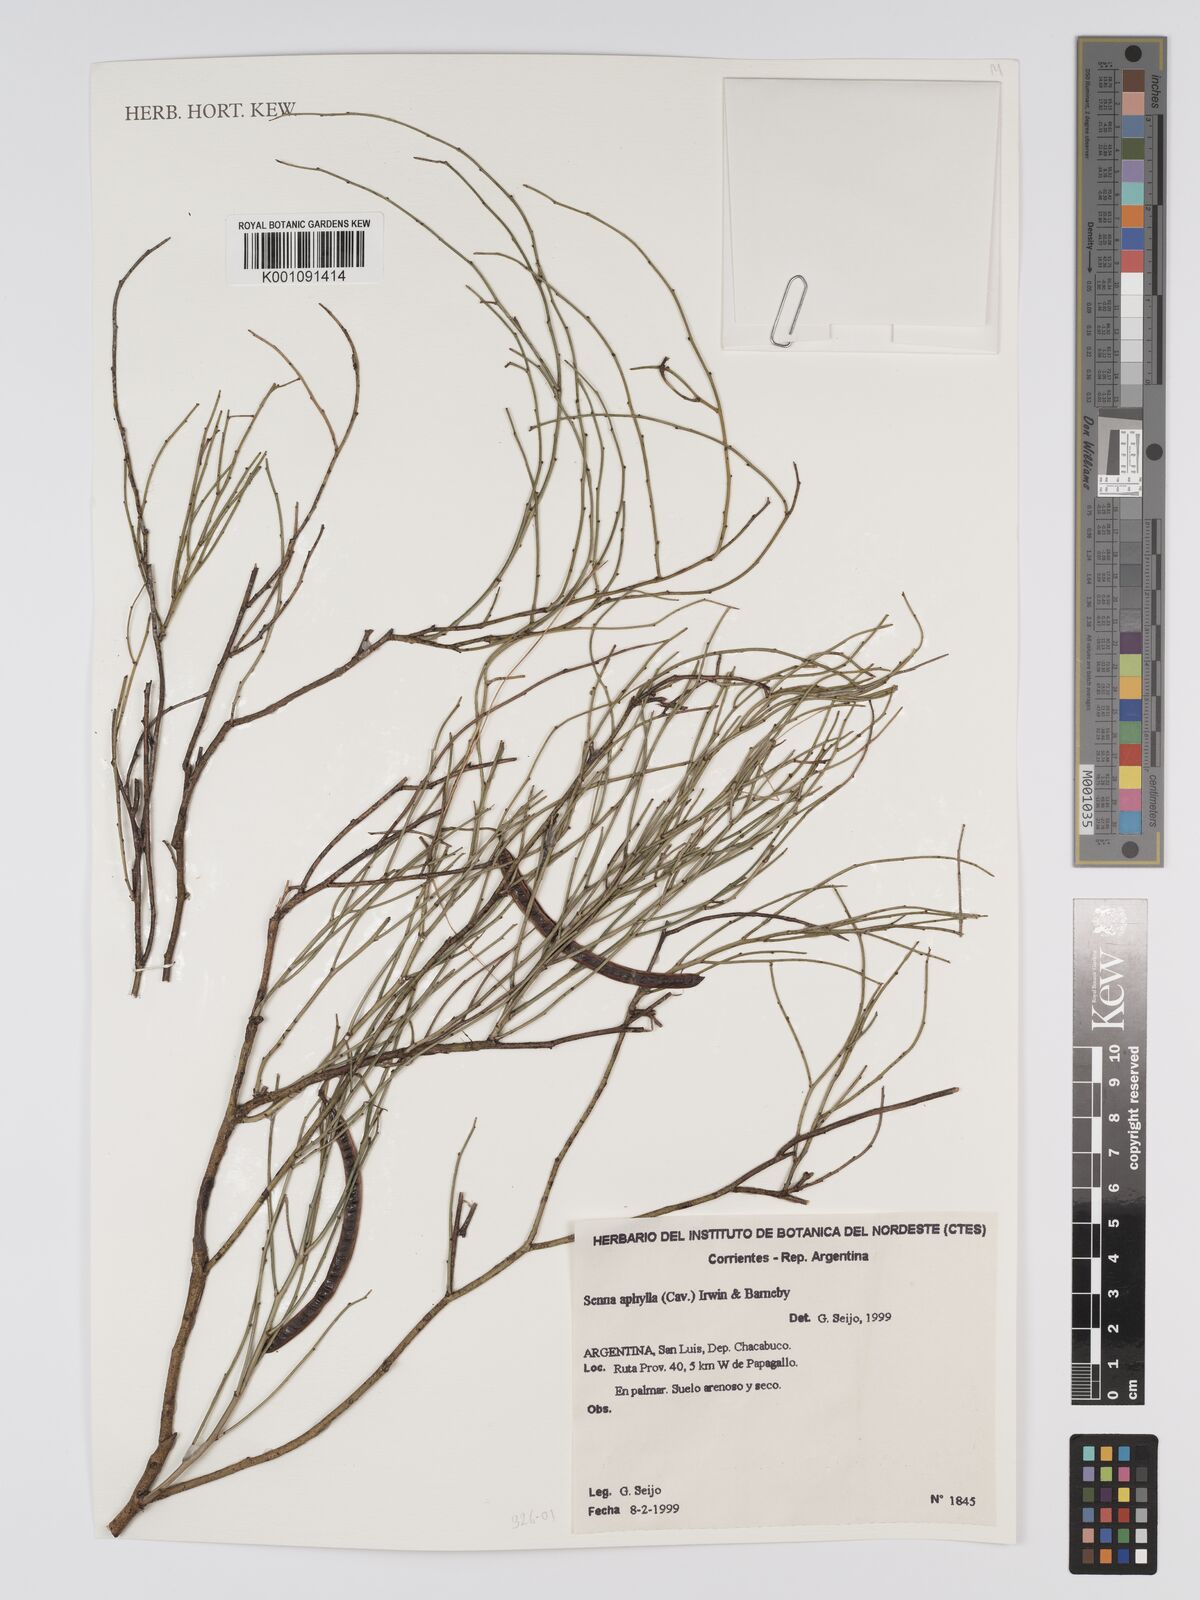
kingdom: Plantae
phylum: Tracheophyta
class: Magnoliopsida
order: Fabales
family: Fabaceae
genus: Senna
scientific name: Senna aphylla
